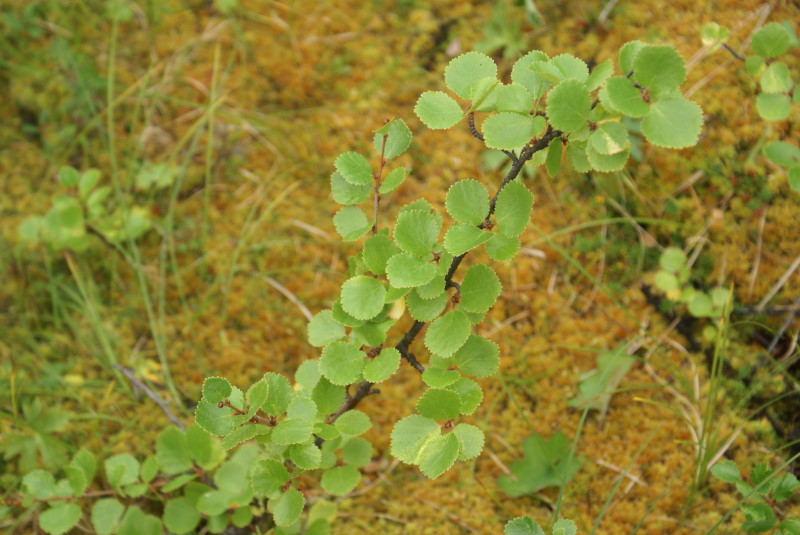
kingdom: Plantae
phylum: Tracheophyta
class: Magnoliopsida
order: Malpighiales
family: Salicaceae
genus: Populus
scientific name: Populus tremula
